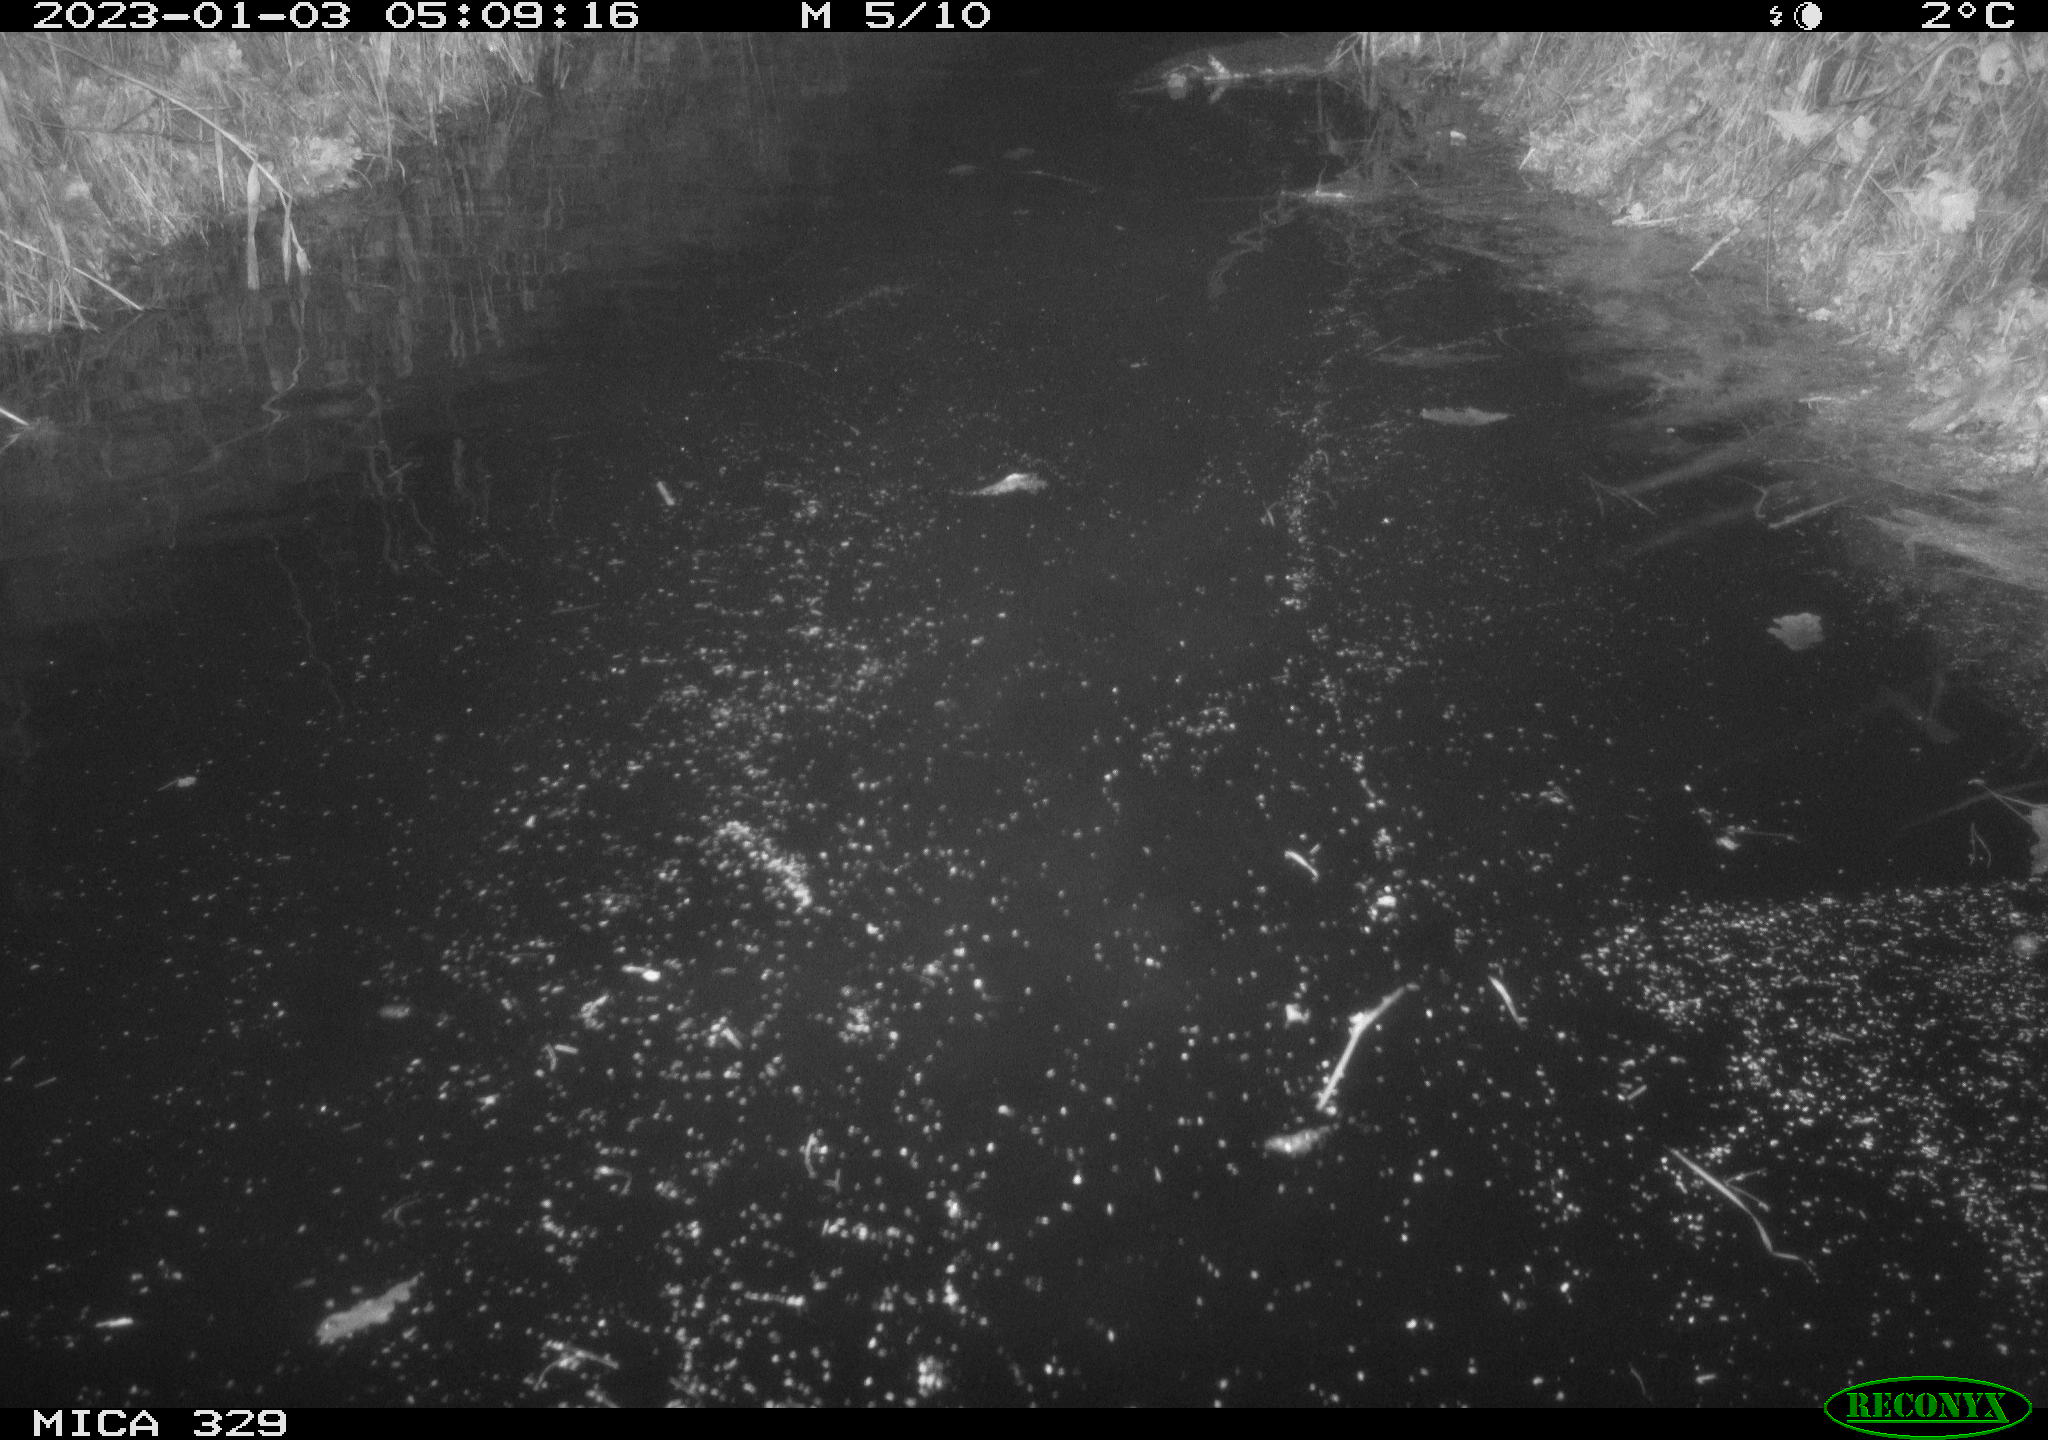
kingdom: Animalia
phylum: Chordata
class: Mammalia
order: Rodentia
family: Cricetidae
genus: Ondatra
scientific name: Ondatra zibethicus
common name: Muskrat
